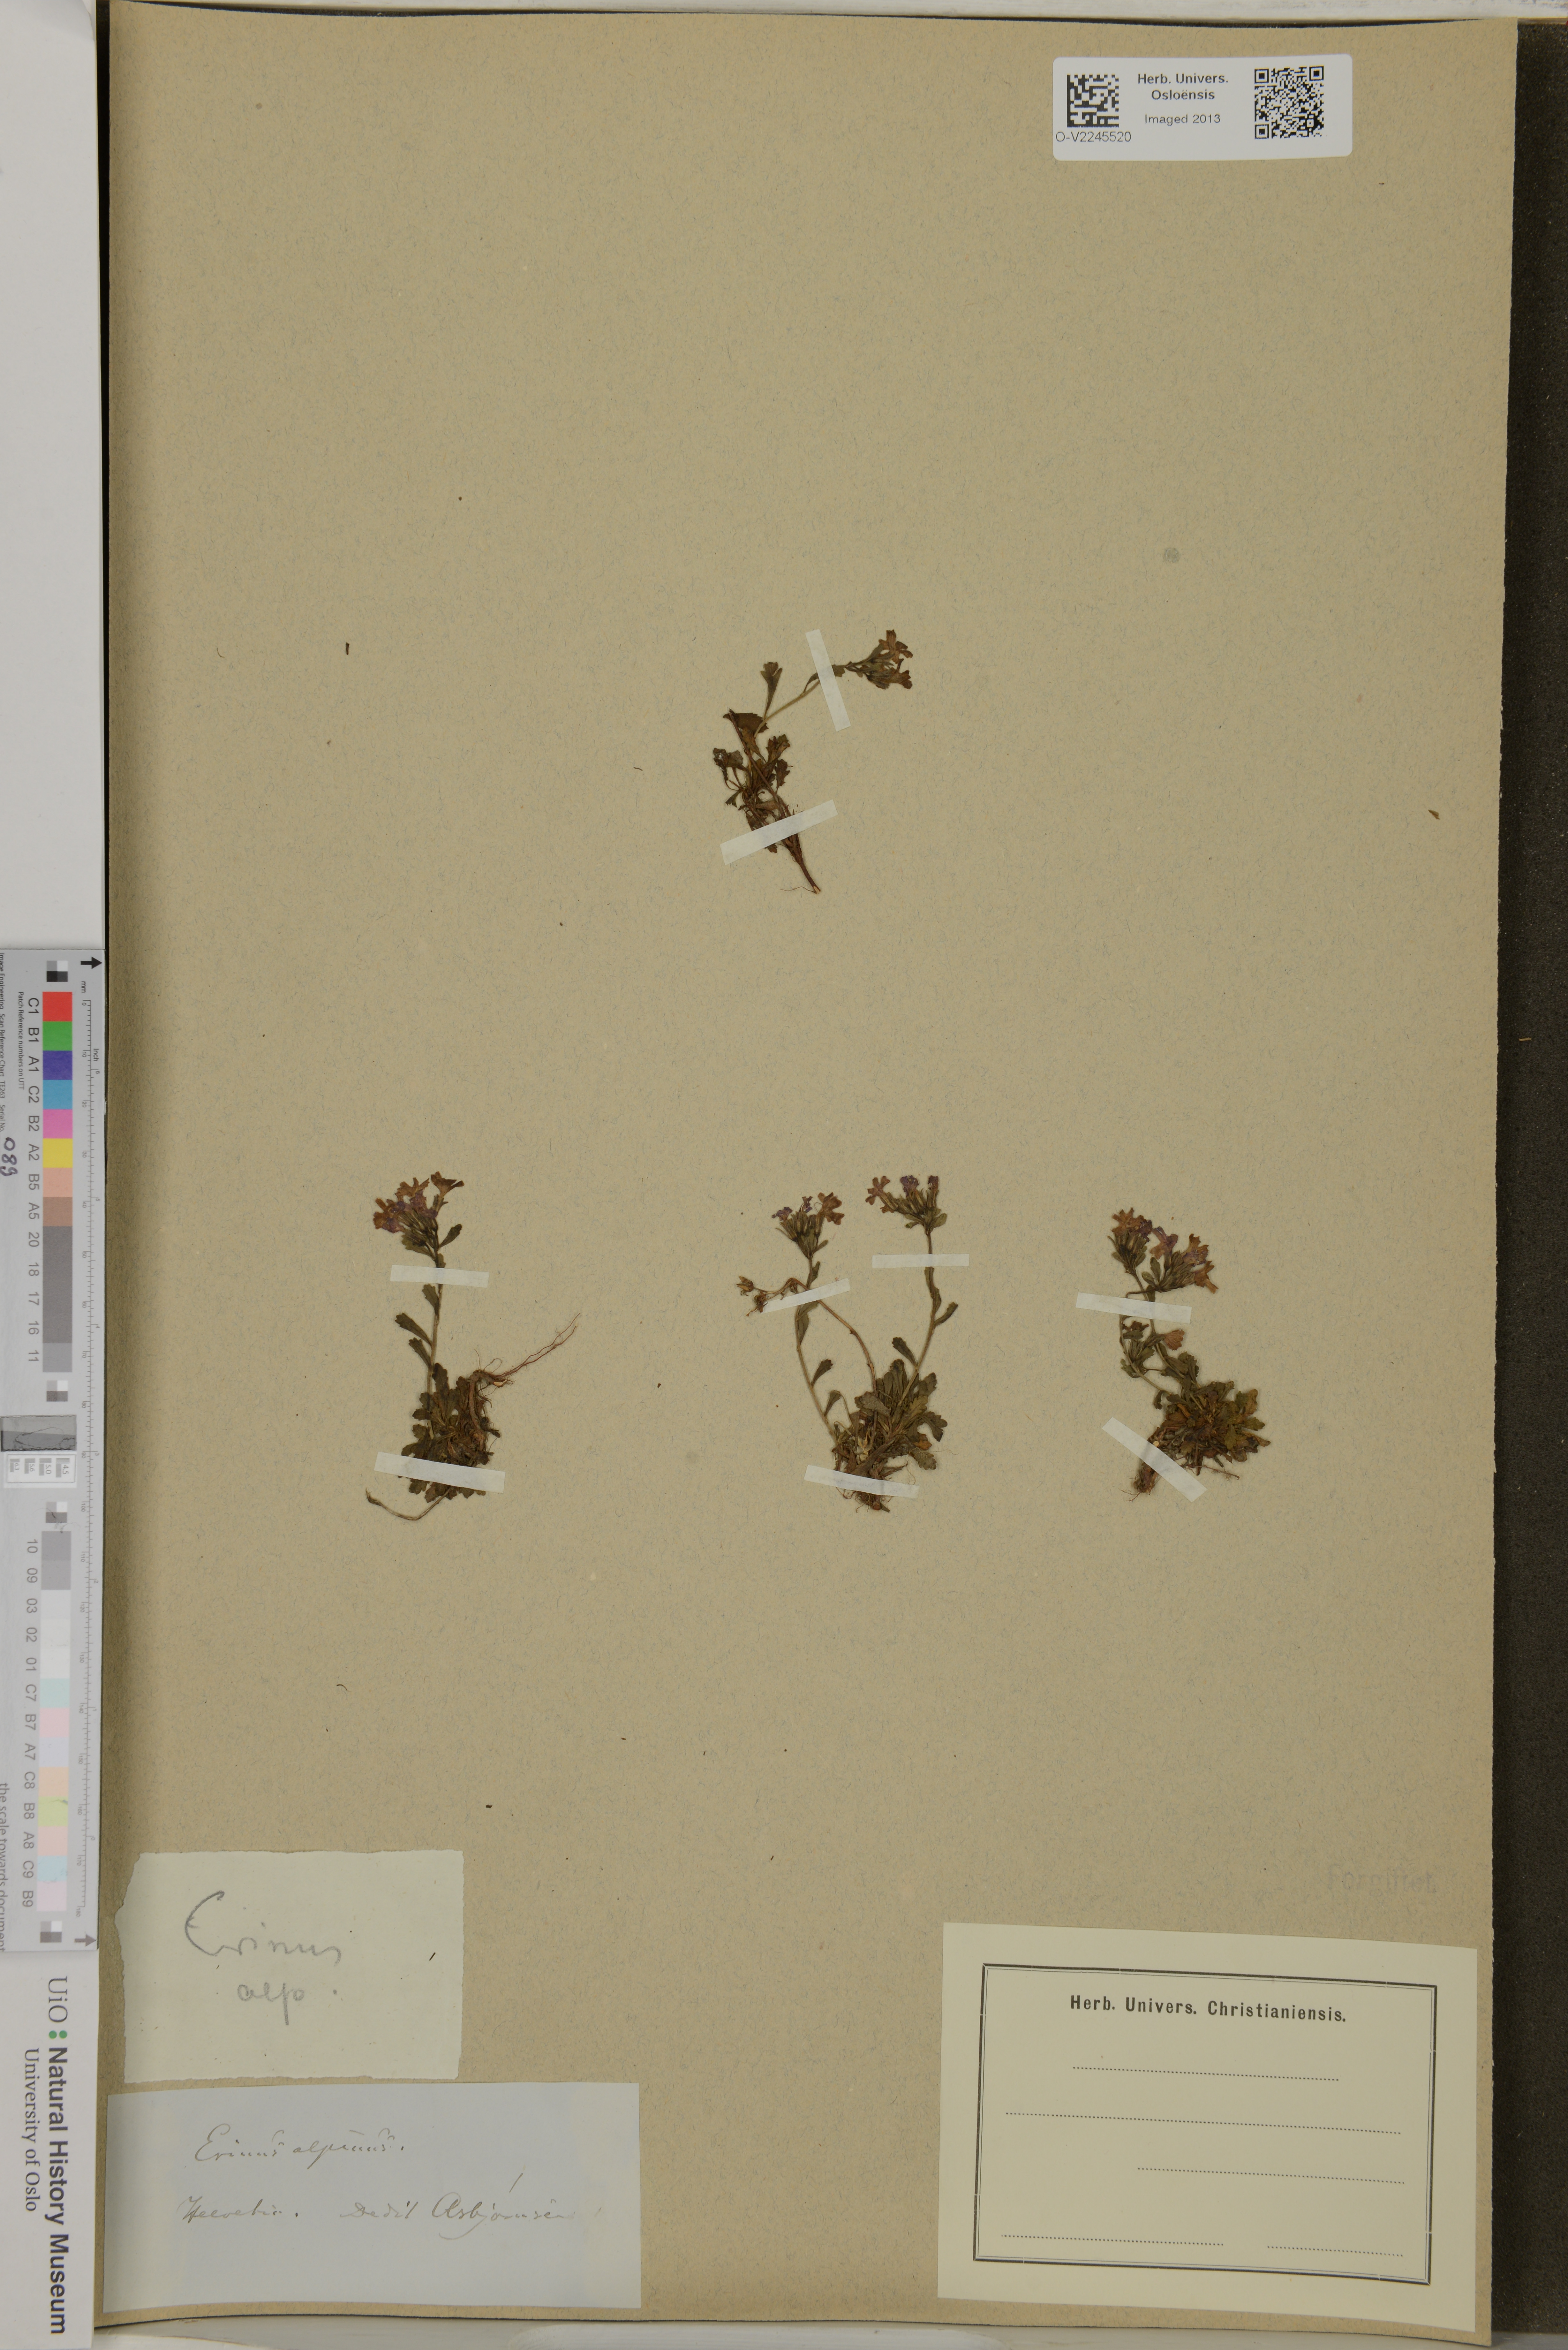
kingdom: Plantae
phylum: Tracheophyta
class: Magnoliopsida
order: Lamiales
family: Plantaginaceae
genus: Erinus
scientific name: Erinus alpinus
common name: Fairy foxglove
